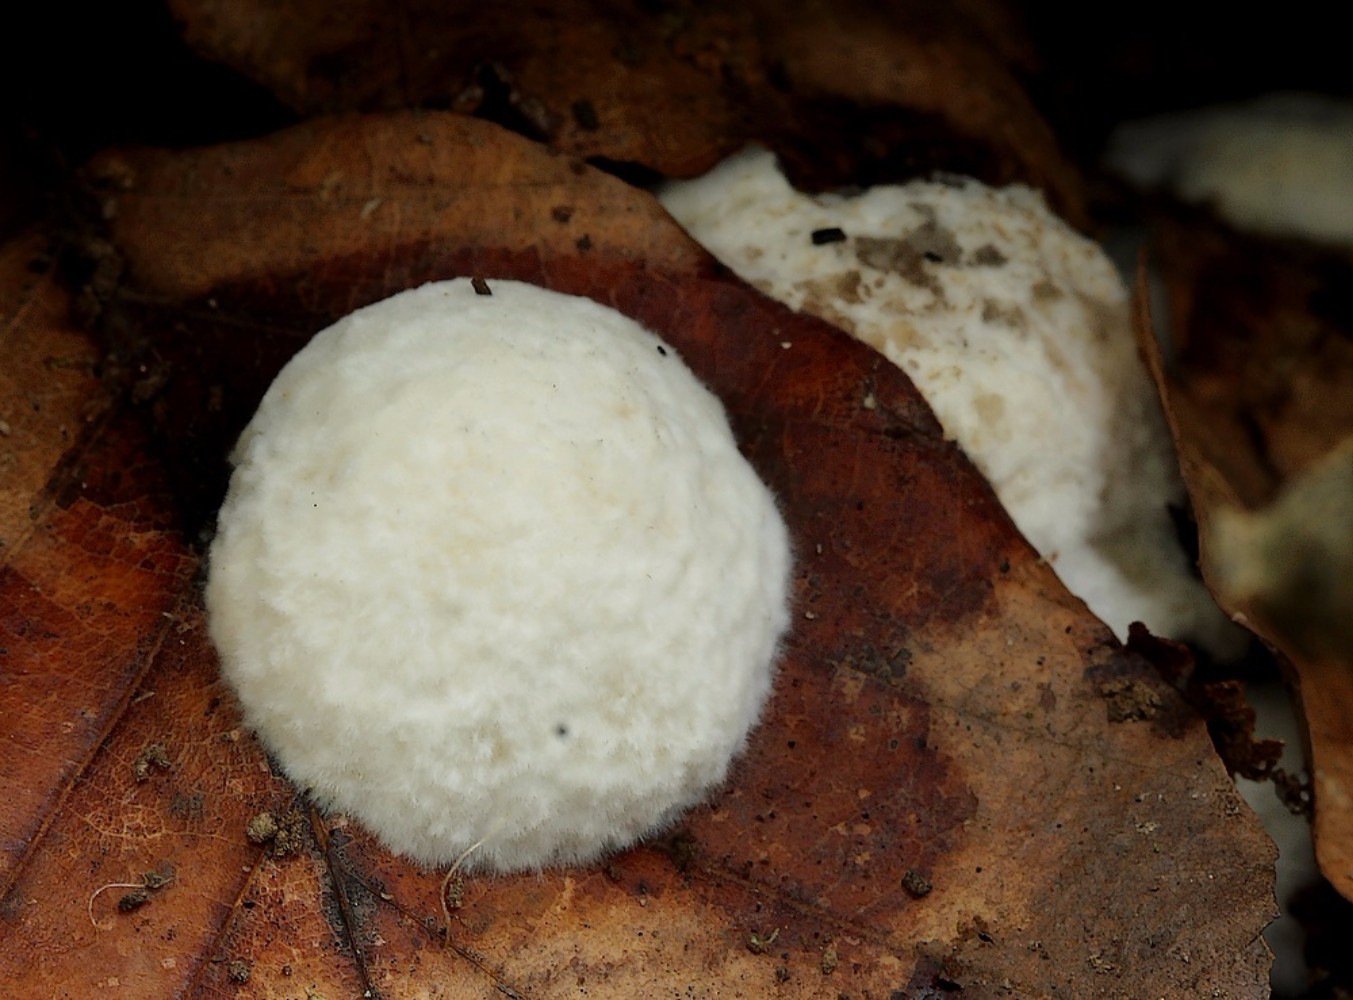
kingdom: Fungi
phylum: Basidiomycota
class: Agaricomycetes
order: Polyporales
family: Dacryobolaceae
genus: Postia
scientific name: Postia ptychogaster
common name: støvende kødporesvamp
